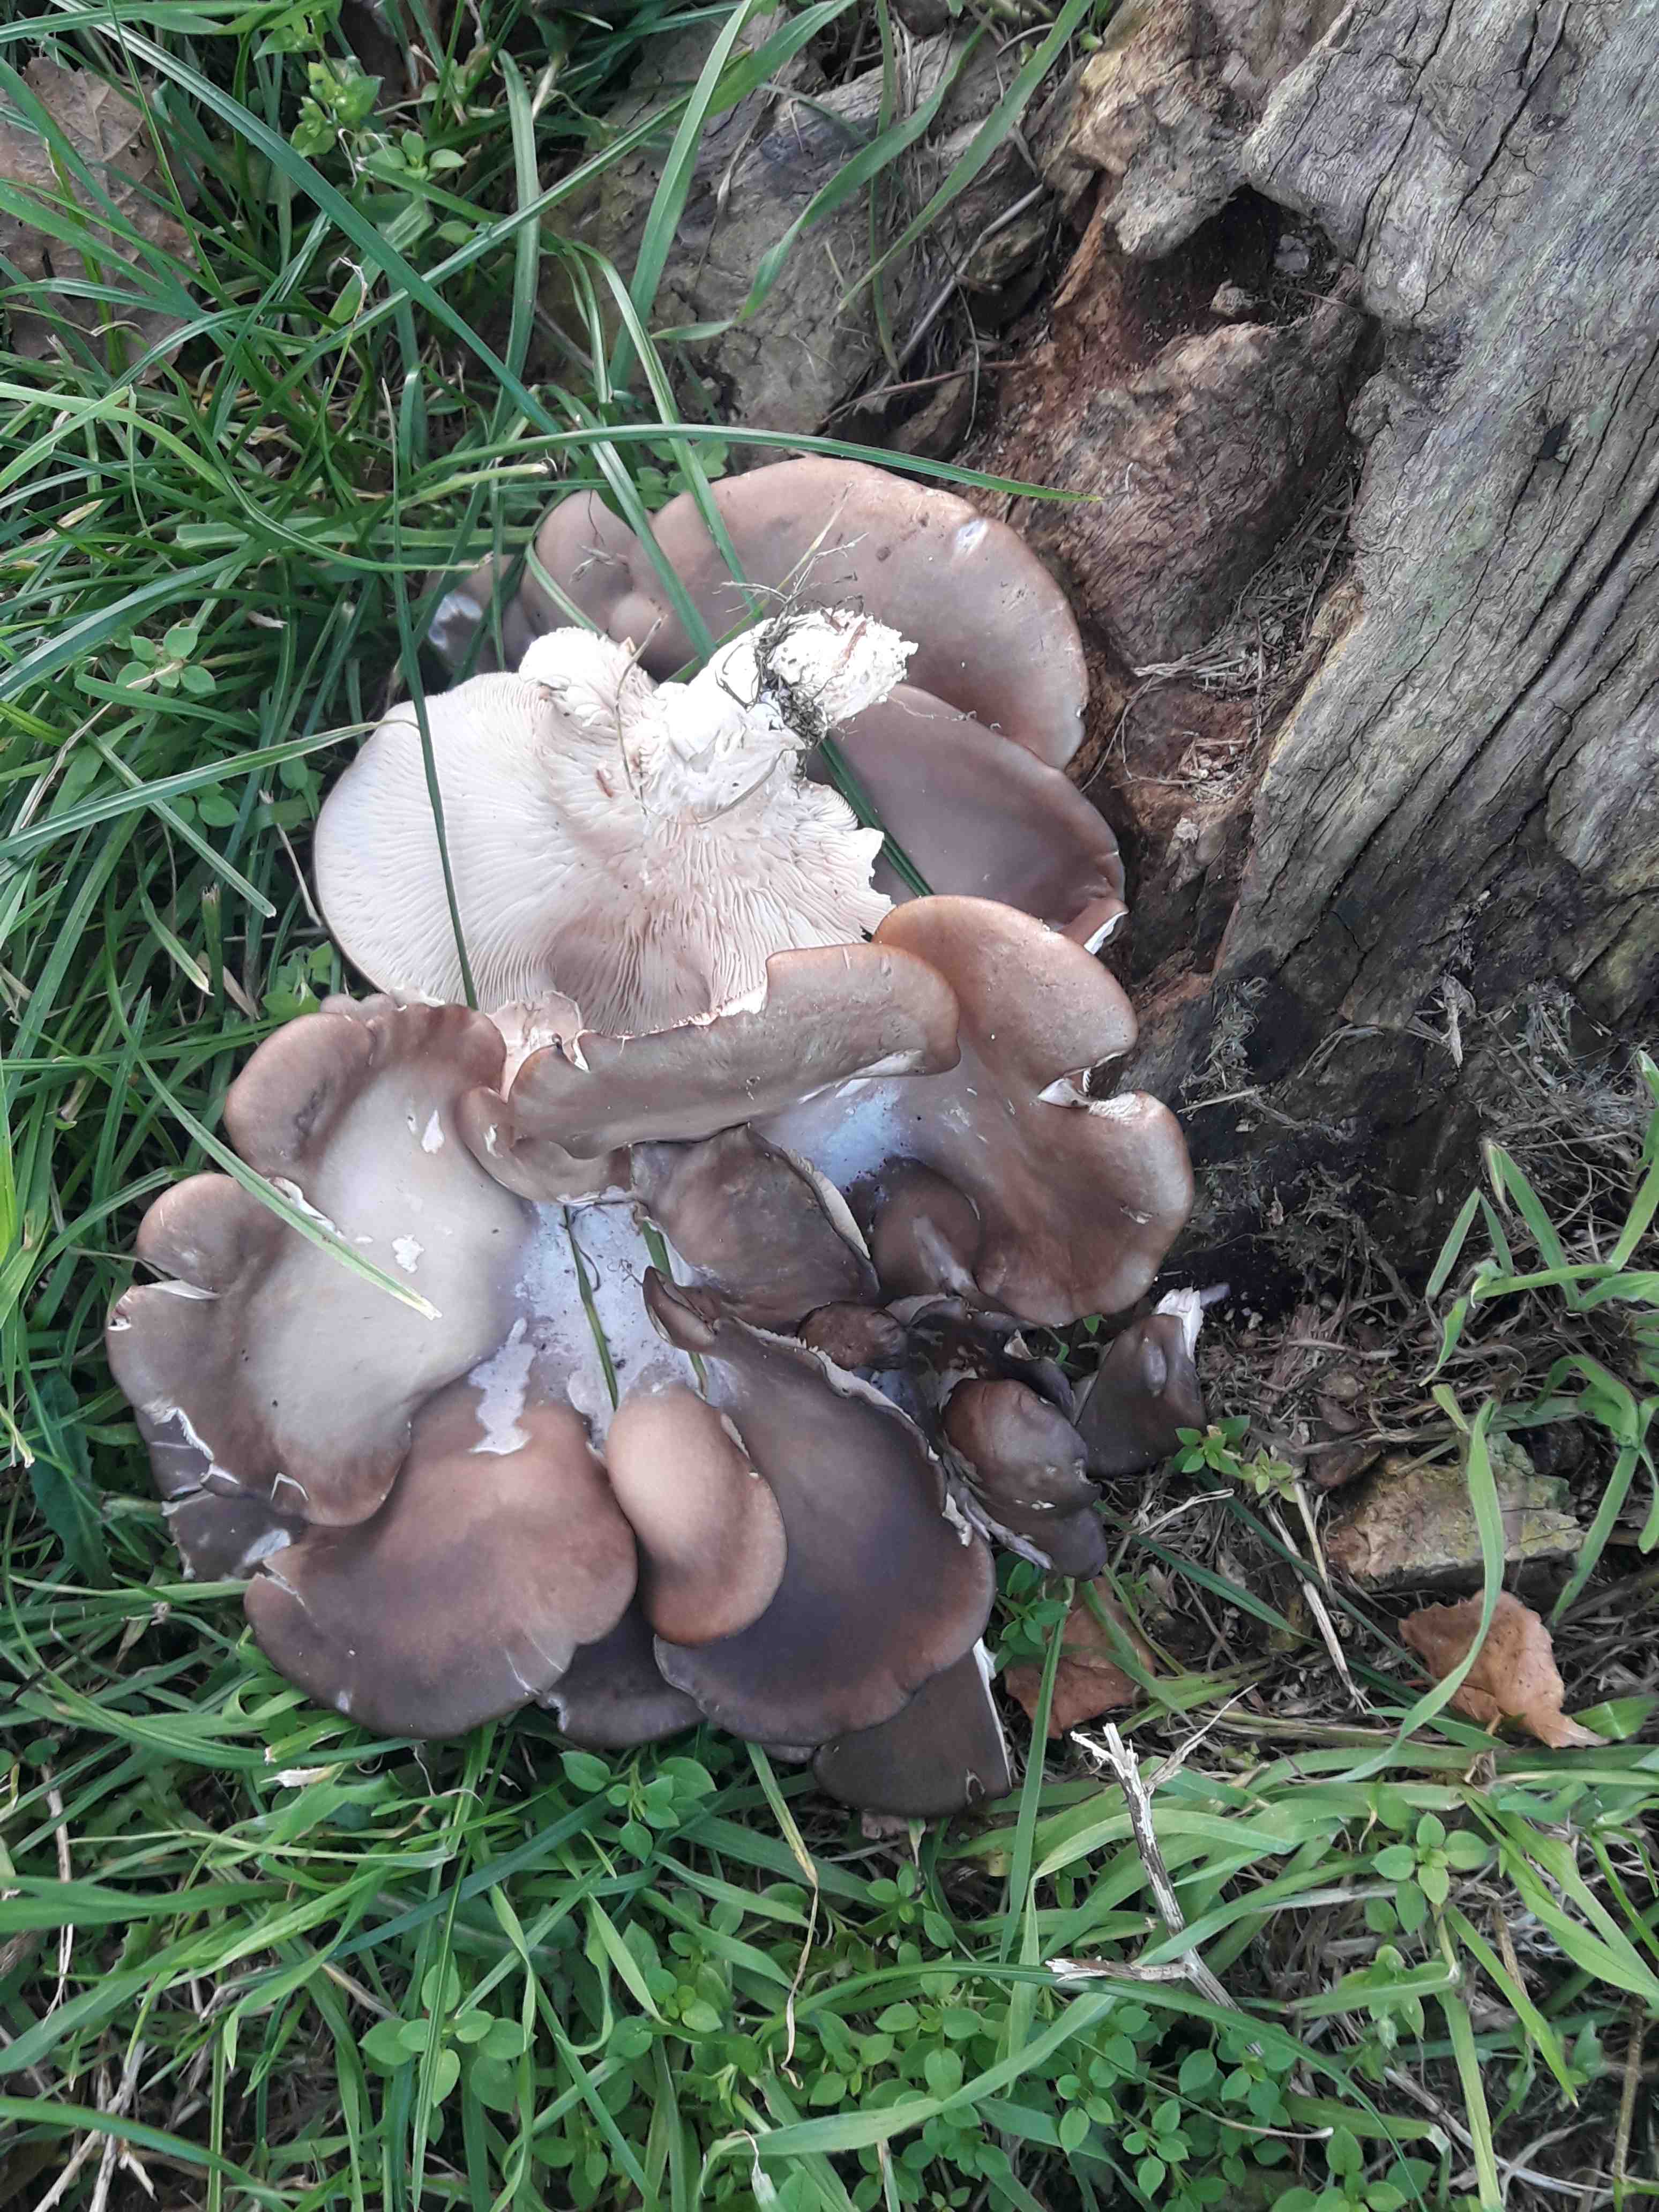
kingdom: Fungi
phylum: Basidiomycota
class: Agaricomycetes
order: Agaricales
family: Pleurotaceae
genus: Pleurotus
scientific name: Pleurotus ostreatus
